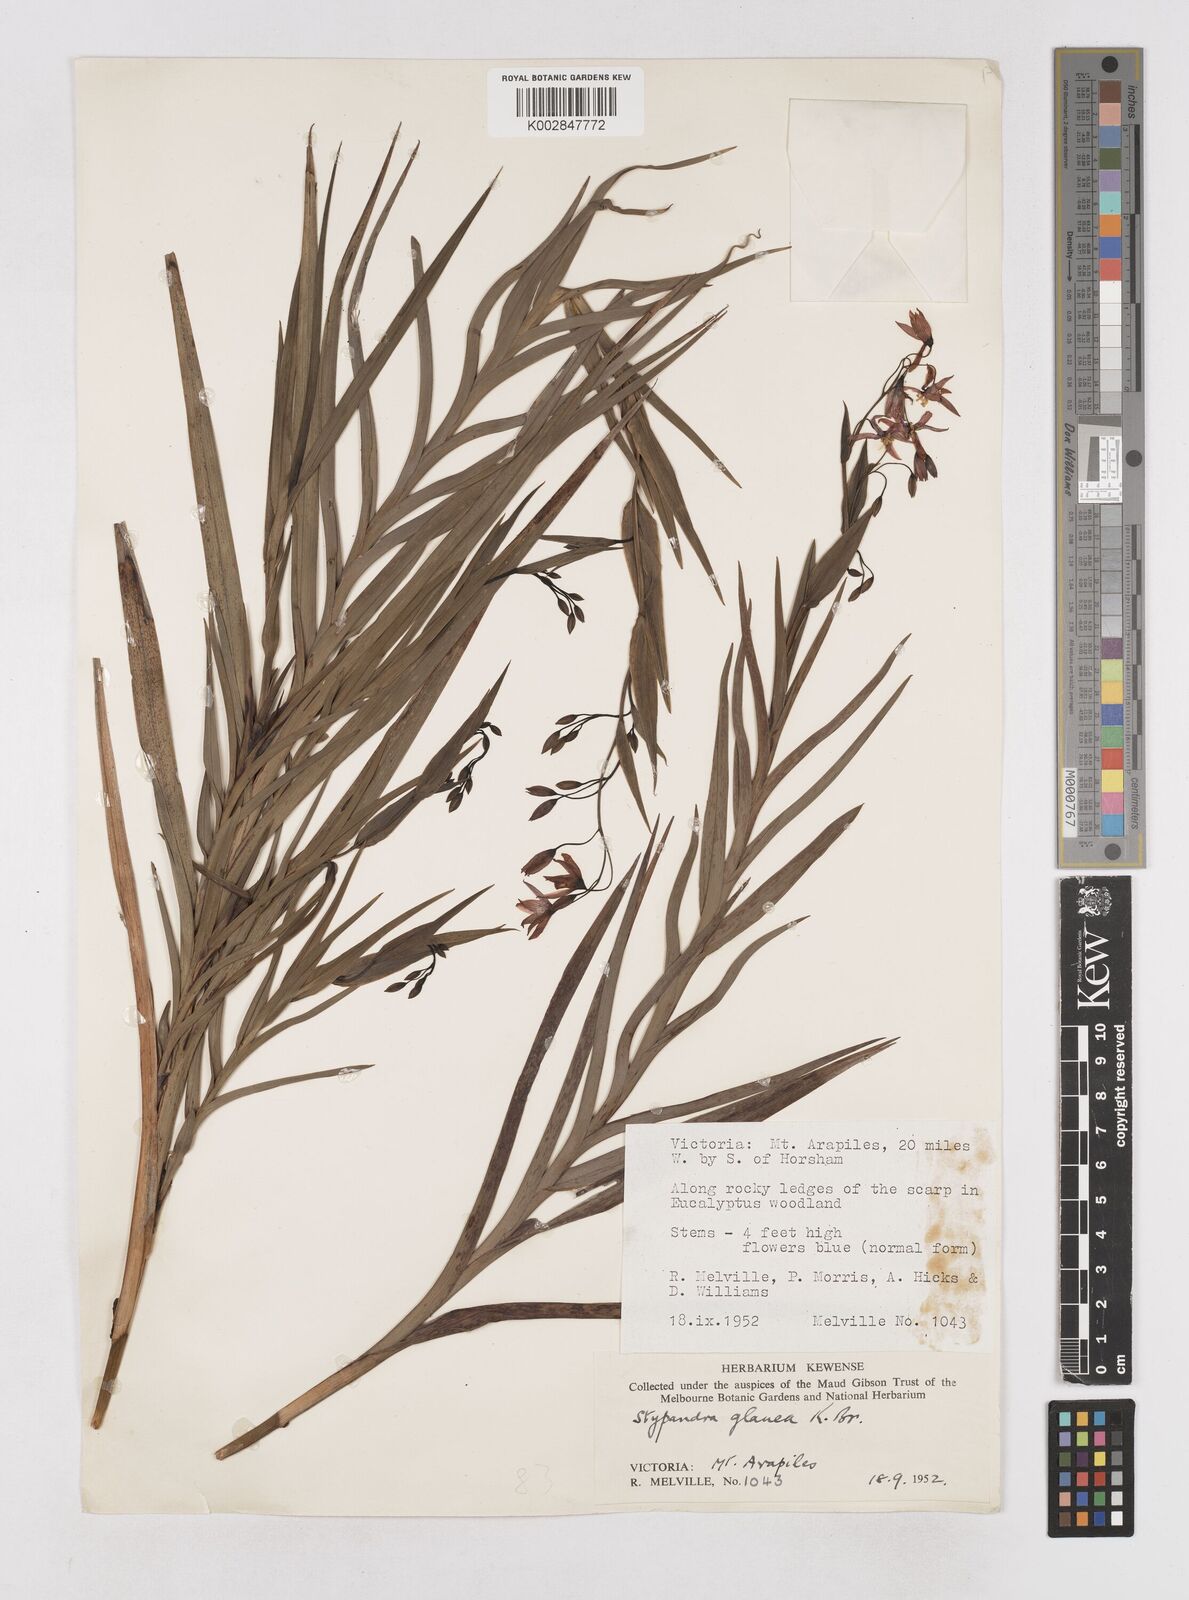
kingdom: Plantae
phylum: Tracheophyta
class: Liliopsida
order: Asparagales
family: Asphodelaceae
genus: Stypandra
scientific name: Stypandra glauca
